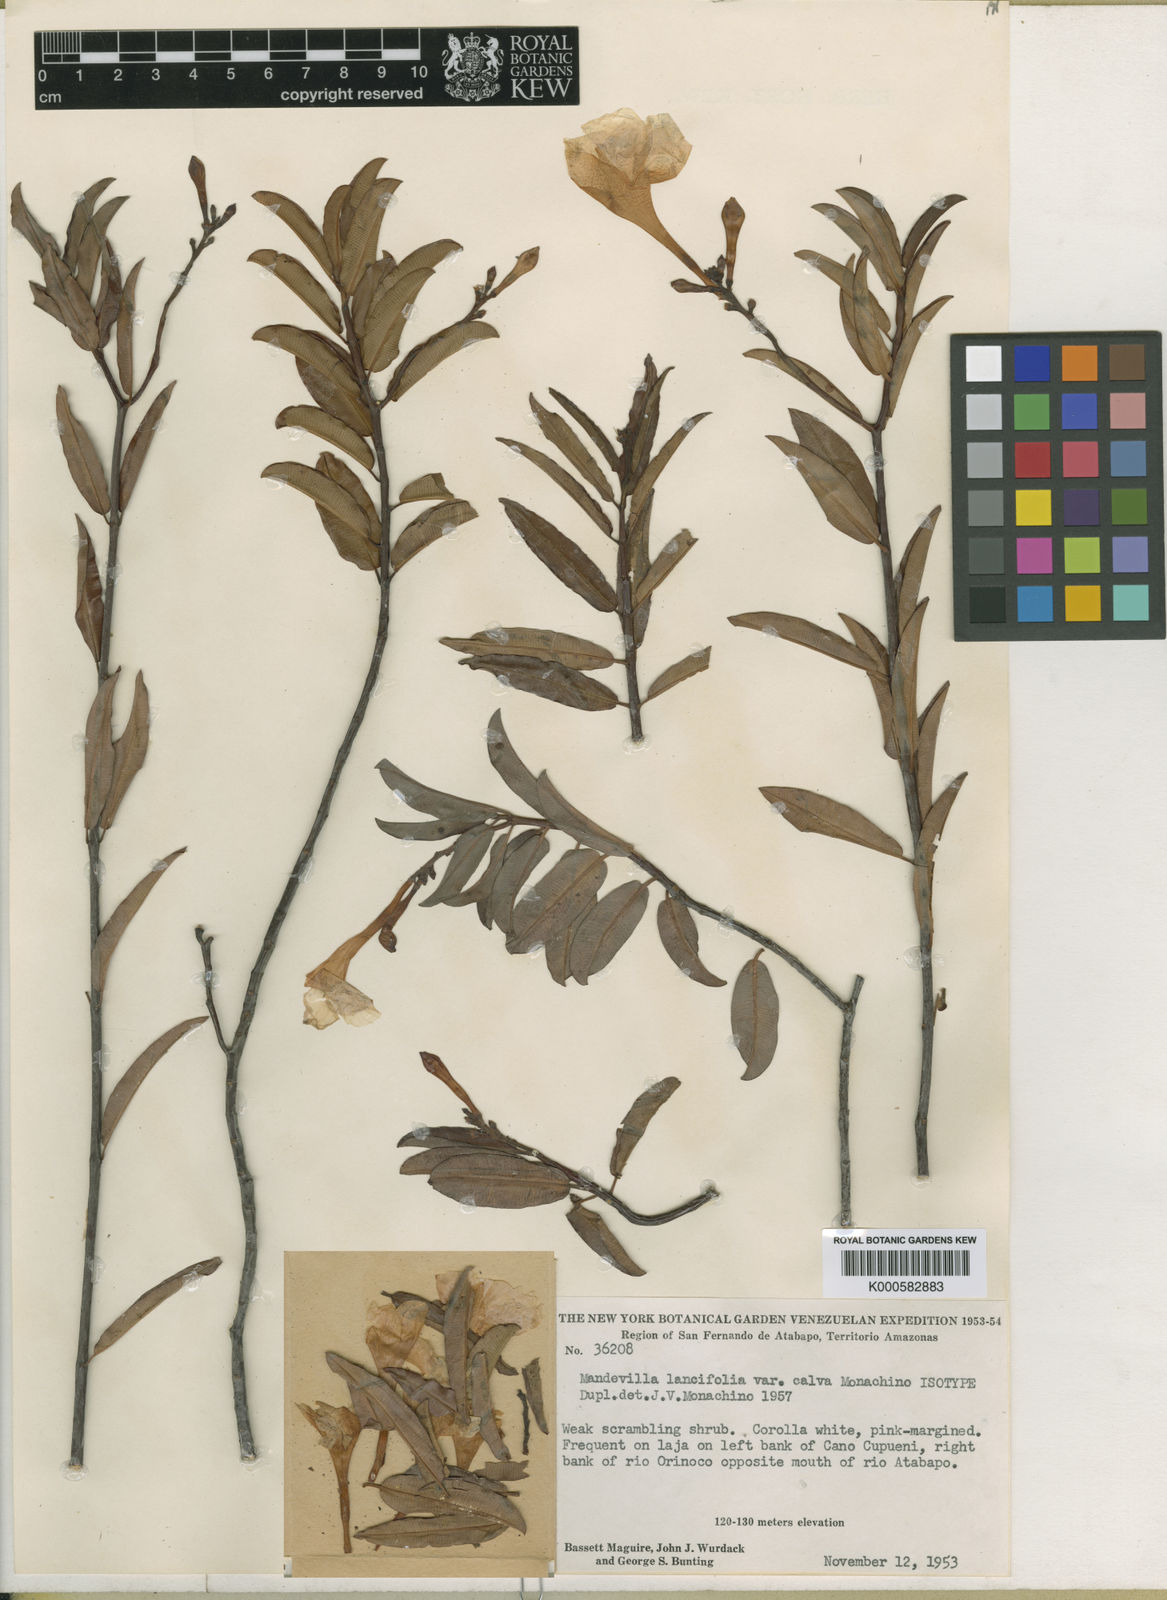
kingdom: Plantae
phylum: Tracheophyta
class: Magnoliopsida
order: Gentianales
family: Apocynaceae
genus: Mandevilla
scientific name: Mandevilla lancifolia
